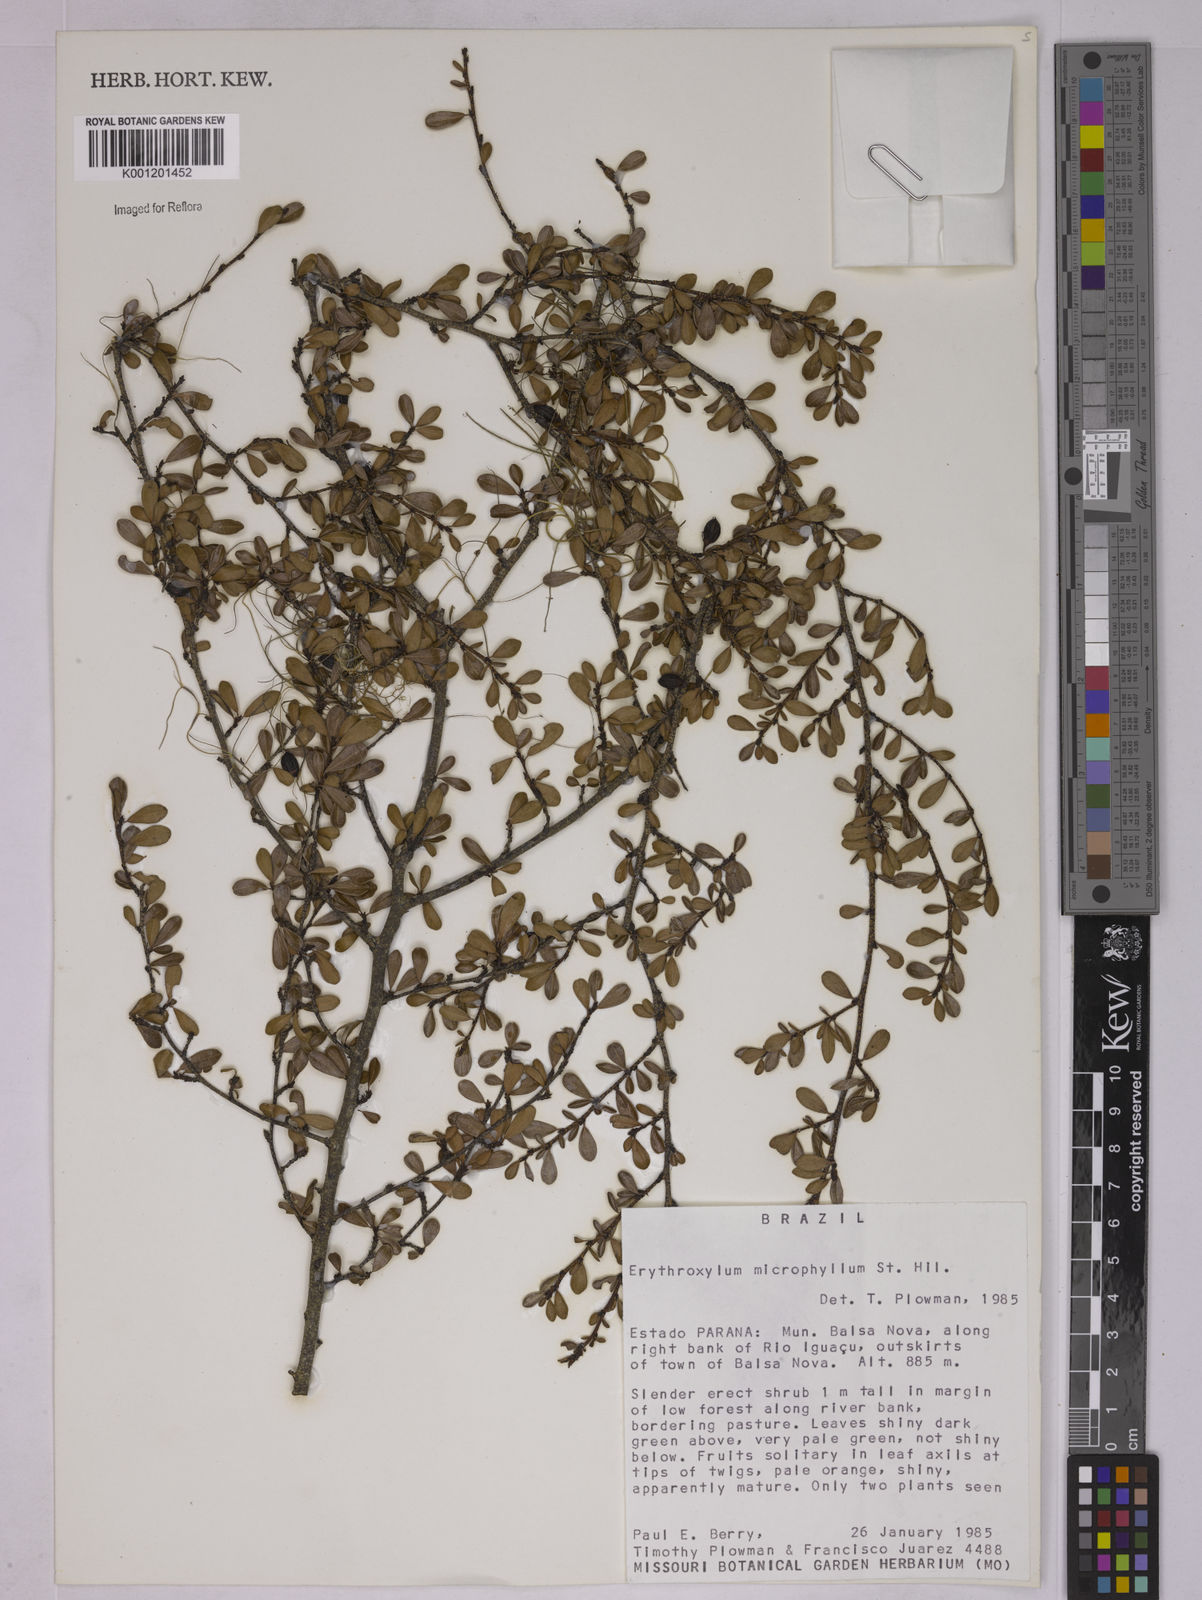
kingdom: Plantae
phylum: Tracheophyta
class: Magnoliopsida
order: Malpighiales
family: Erythroxylaceae
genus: Erythroxylum
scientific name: Erythroxylum microphyllum
